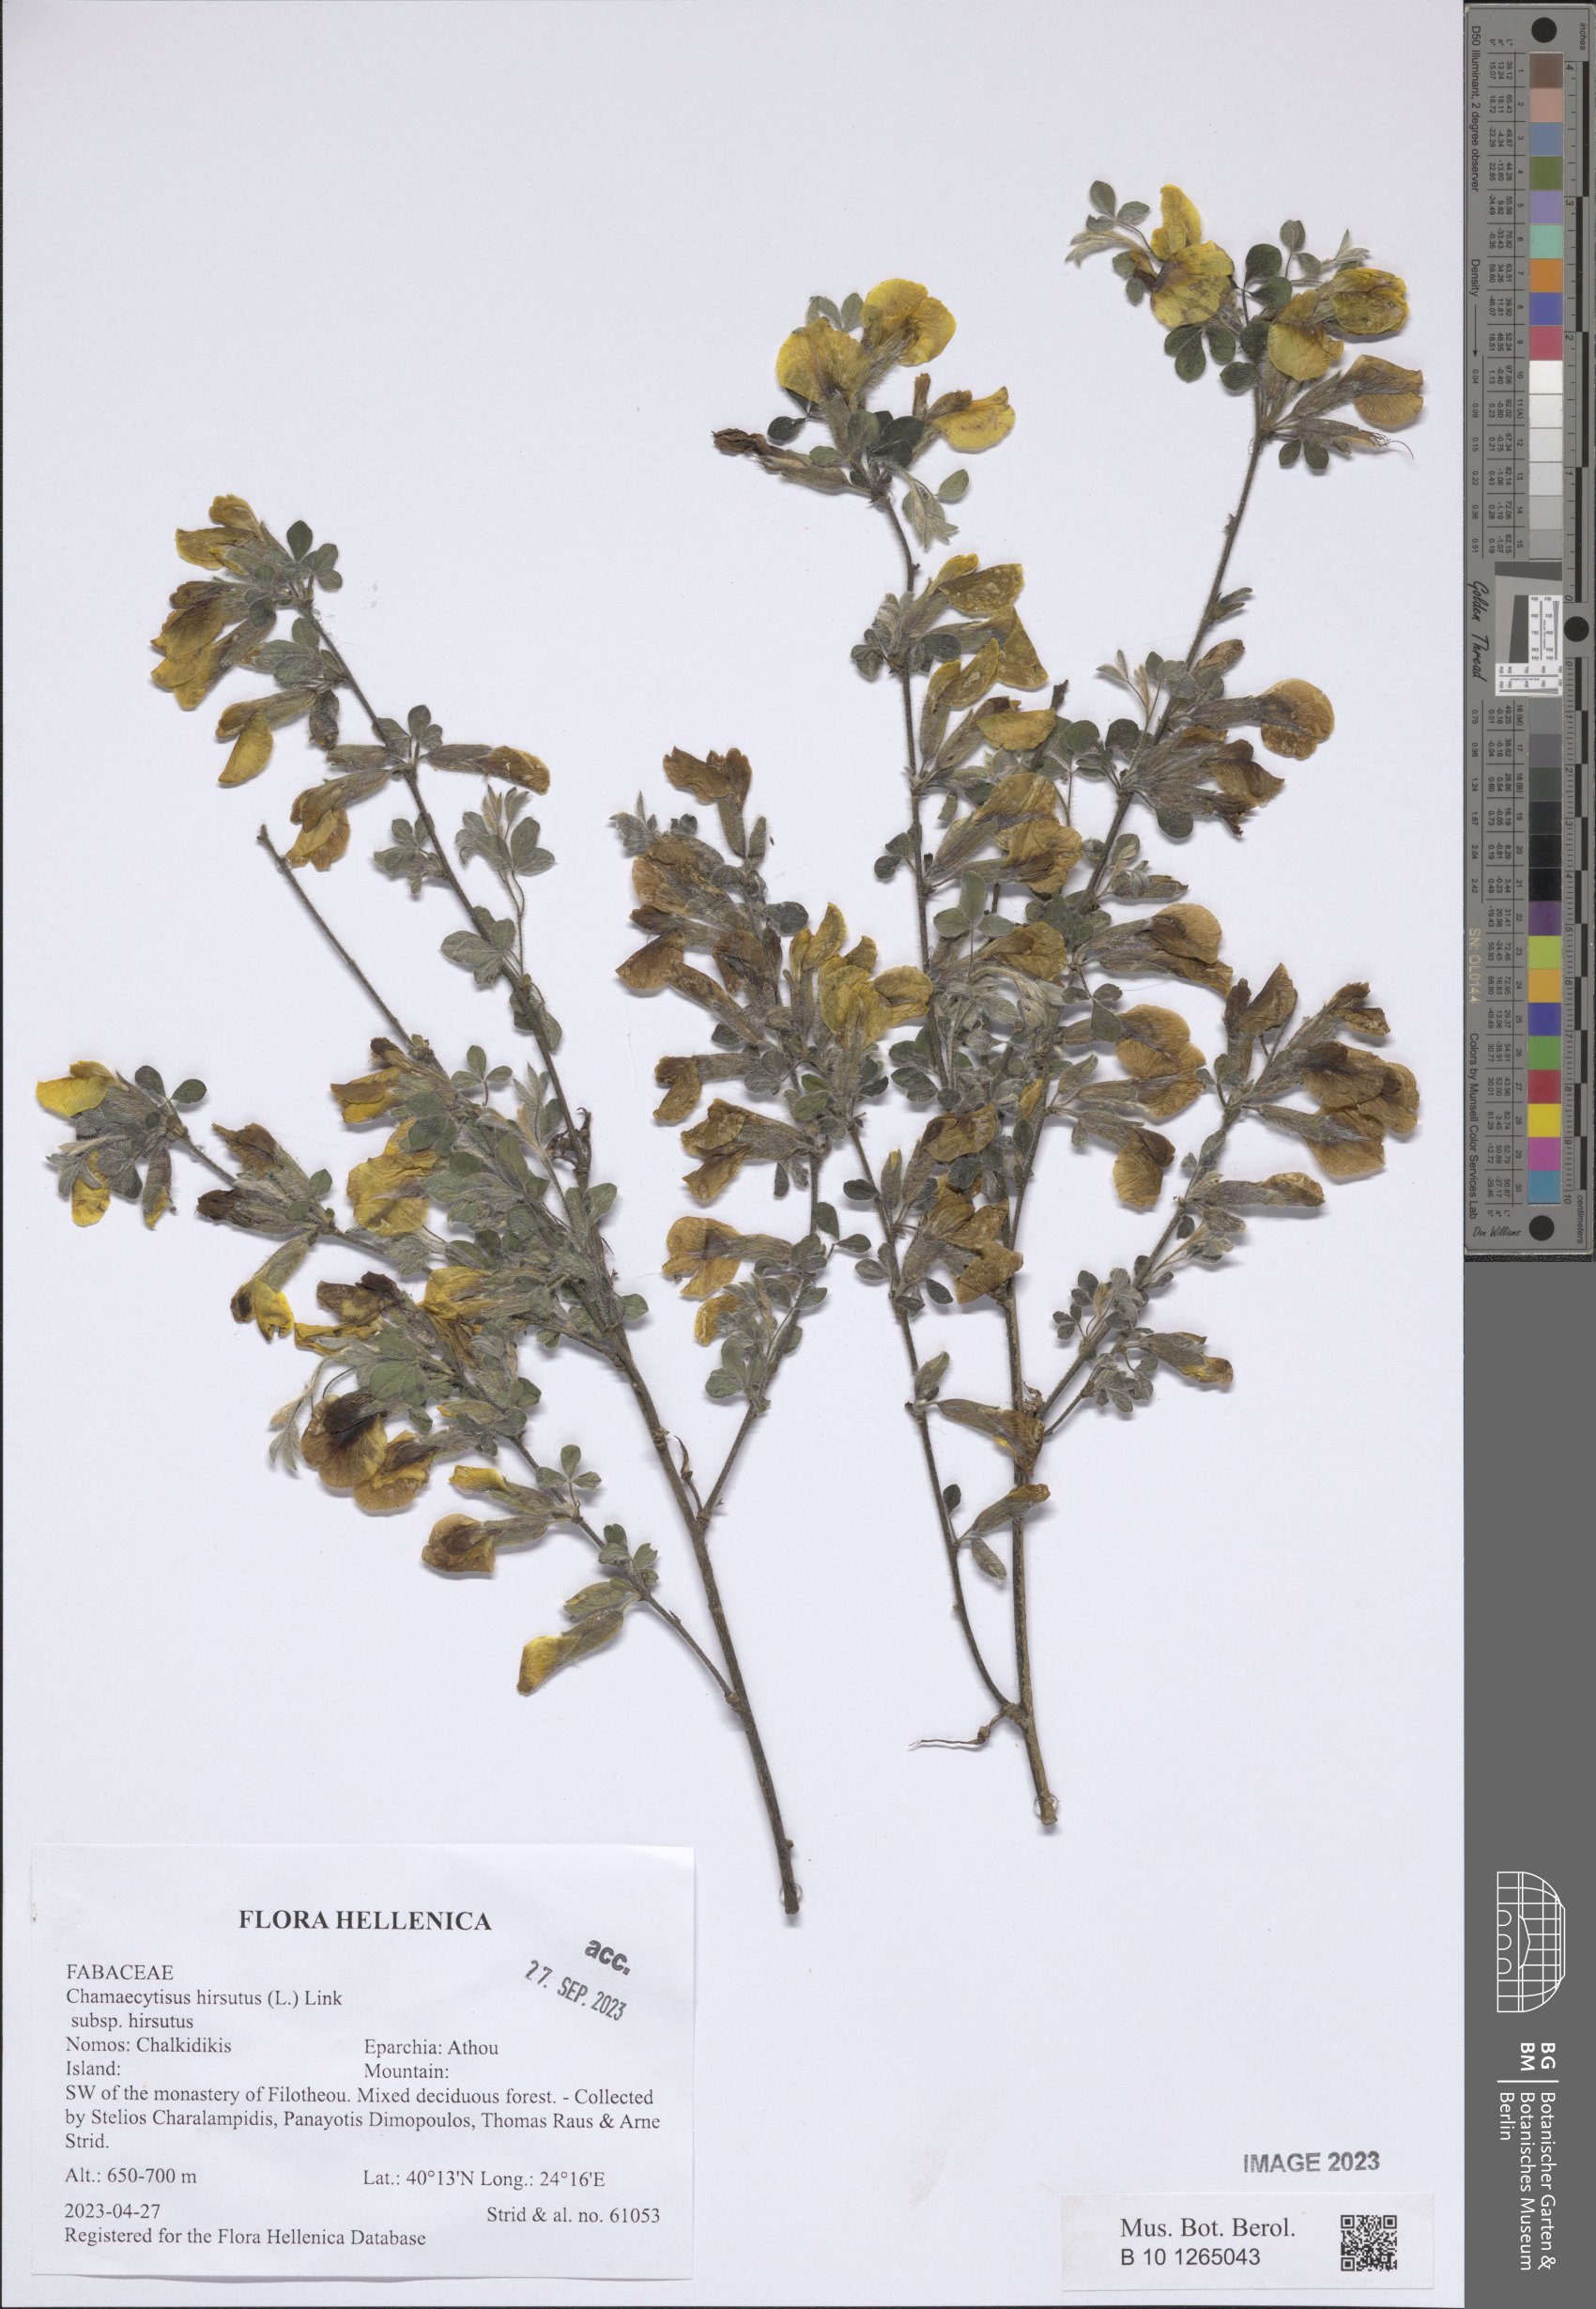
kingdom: Plantae
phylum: Tracheophyta
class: Magnoliopsida
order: Fabales
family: Fabaceae
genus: Chamaecytisus
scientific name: Chamaecytisus hirsutus
